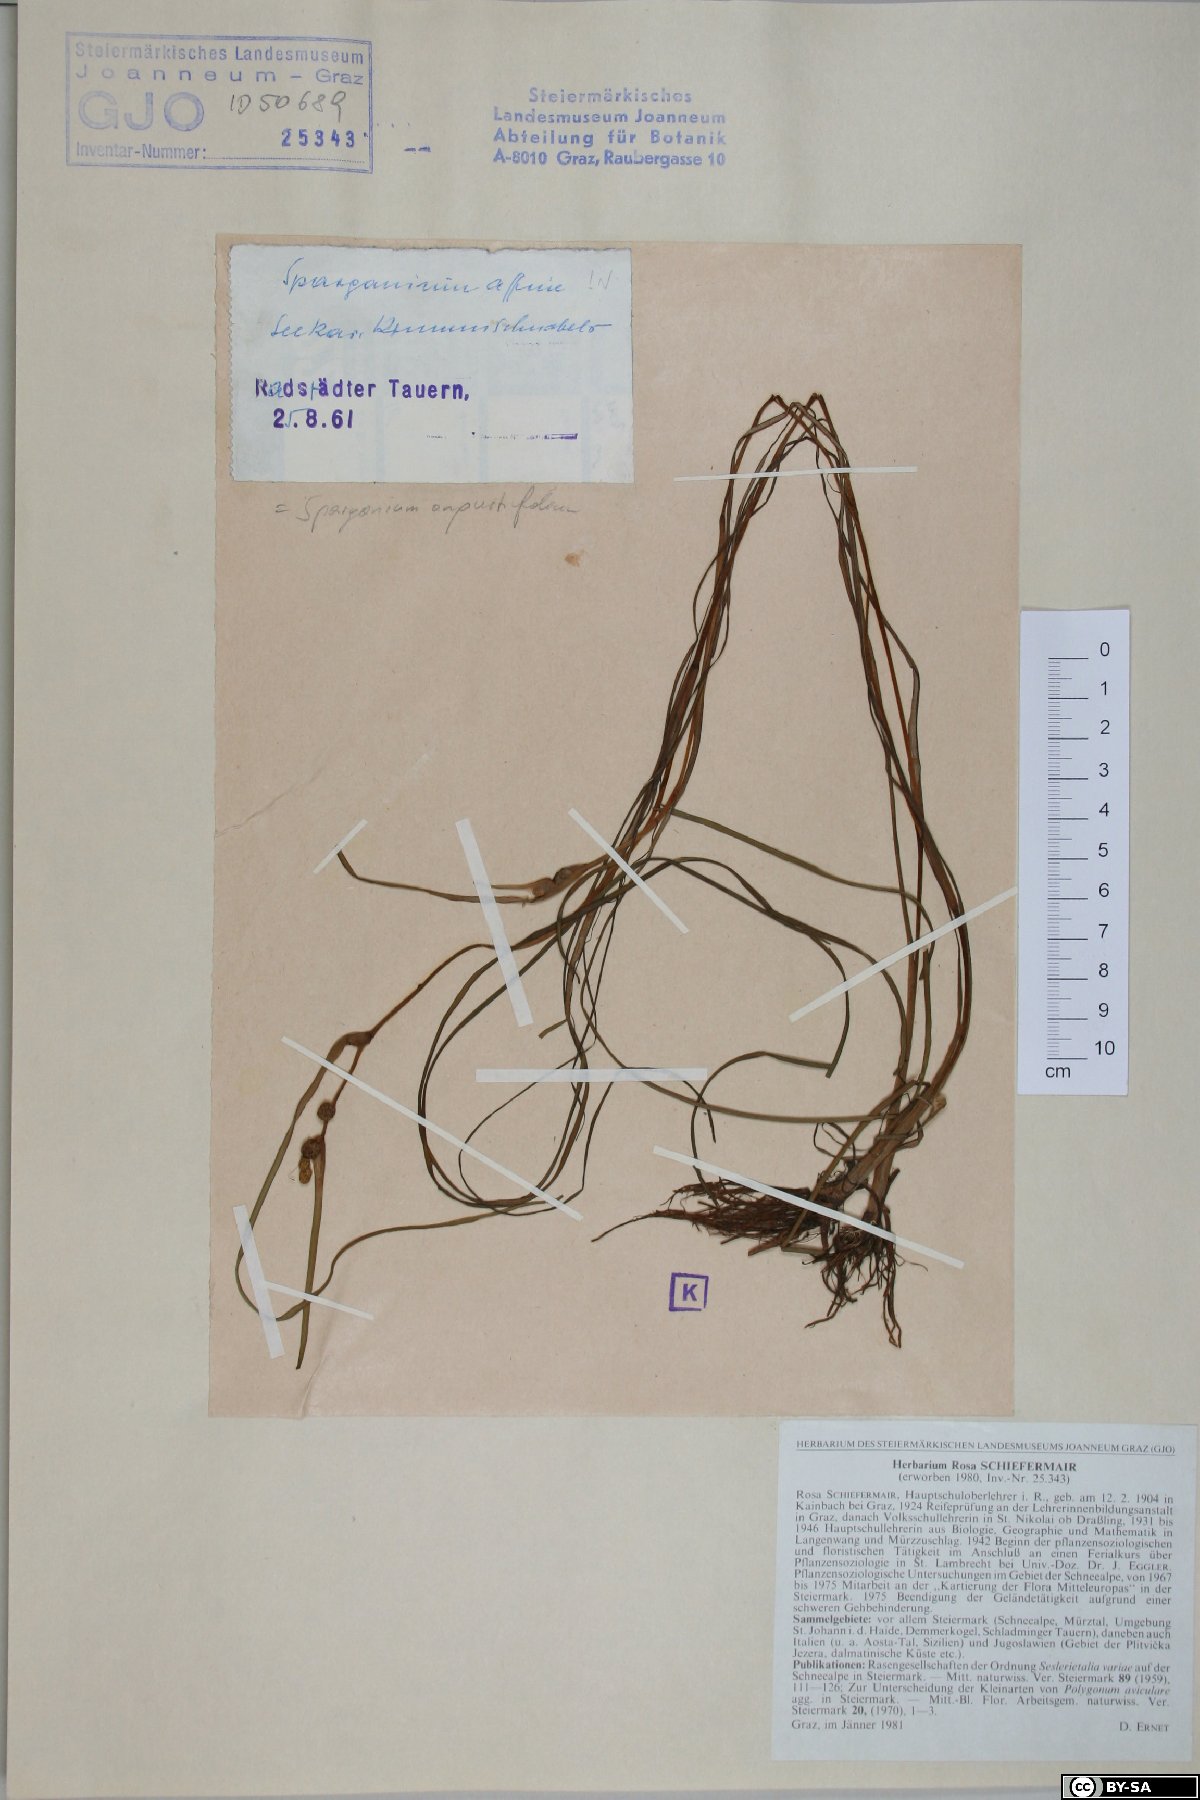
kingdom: Plantae
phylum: Tracheophyta
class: Liliopsida
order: Poales
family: Typhaceae
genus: Sparganium
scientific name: Sparganium angustifolium
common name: Floating bur-reed
